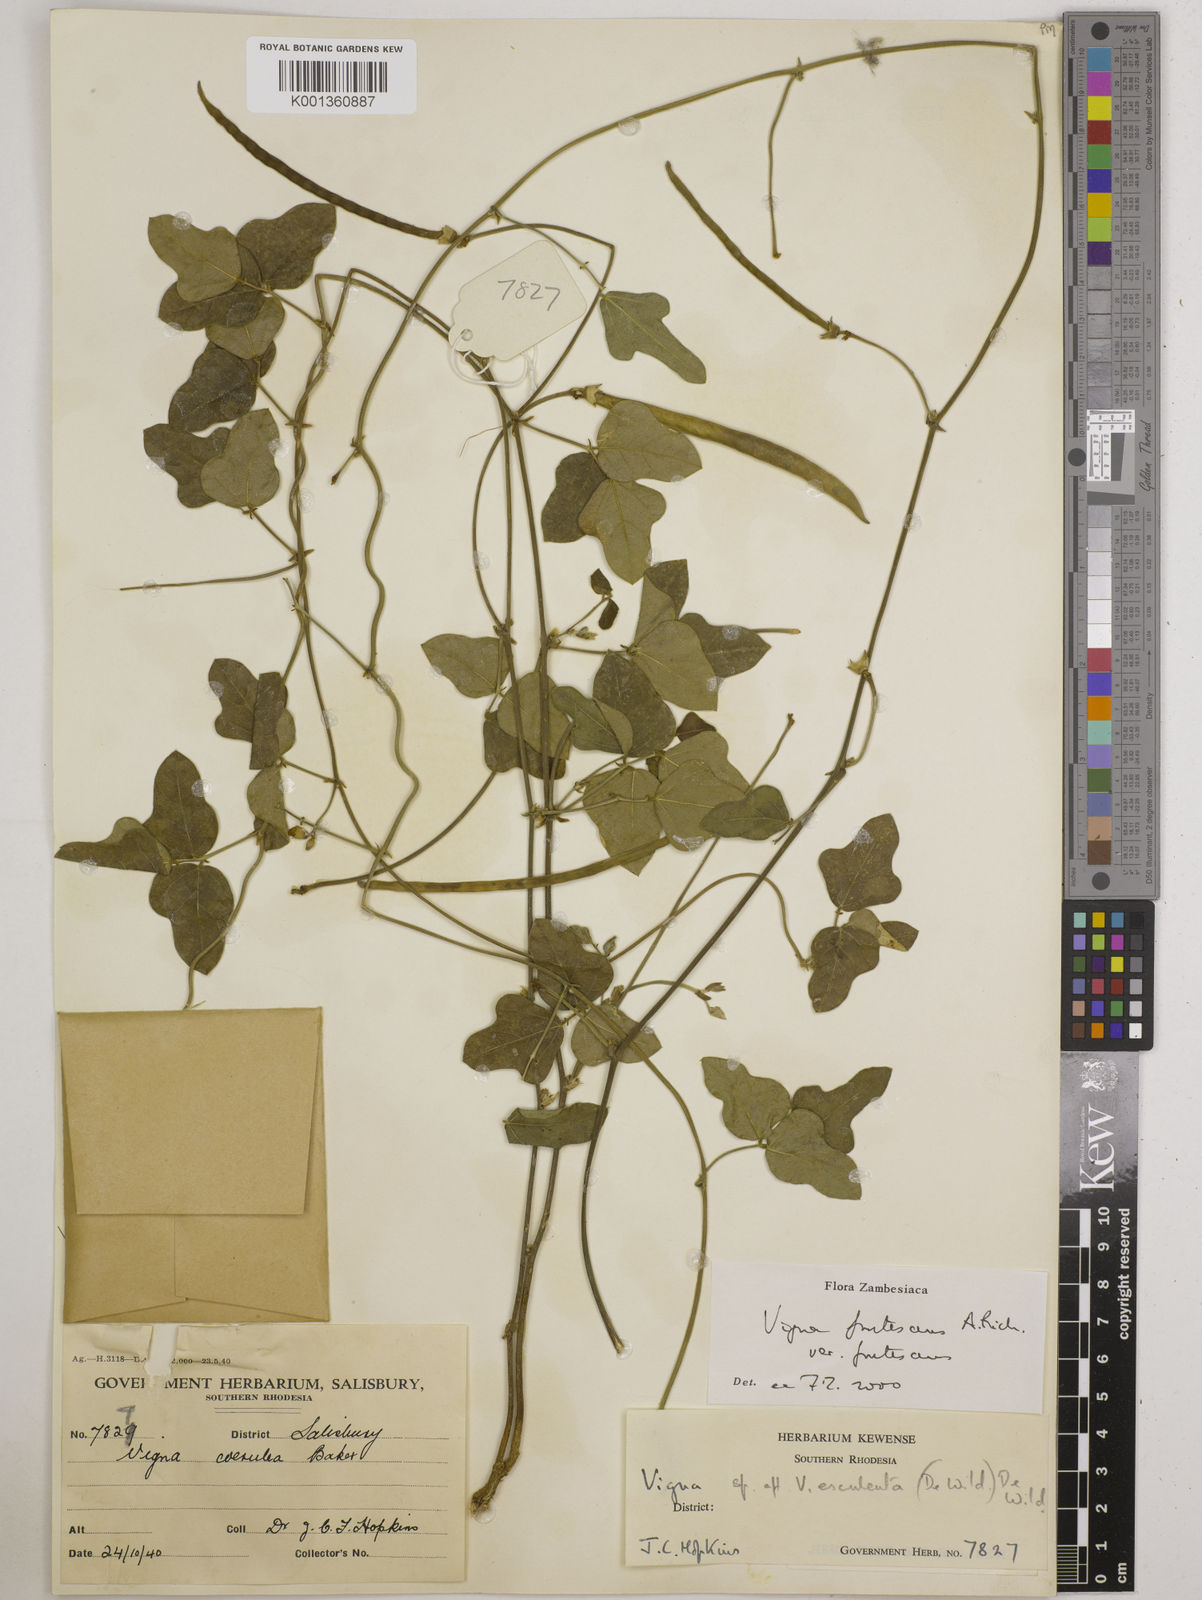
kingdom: Plantae
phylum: Tracheophyta
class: Magnoliopsida
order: Fabales
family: Fabaceae
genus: Vigna
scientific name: Vigna
